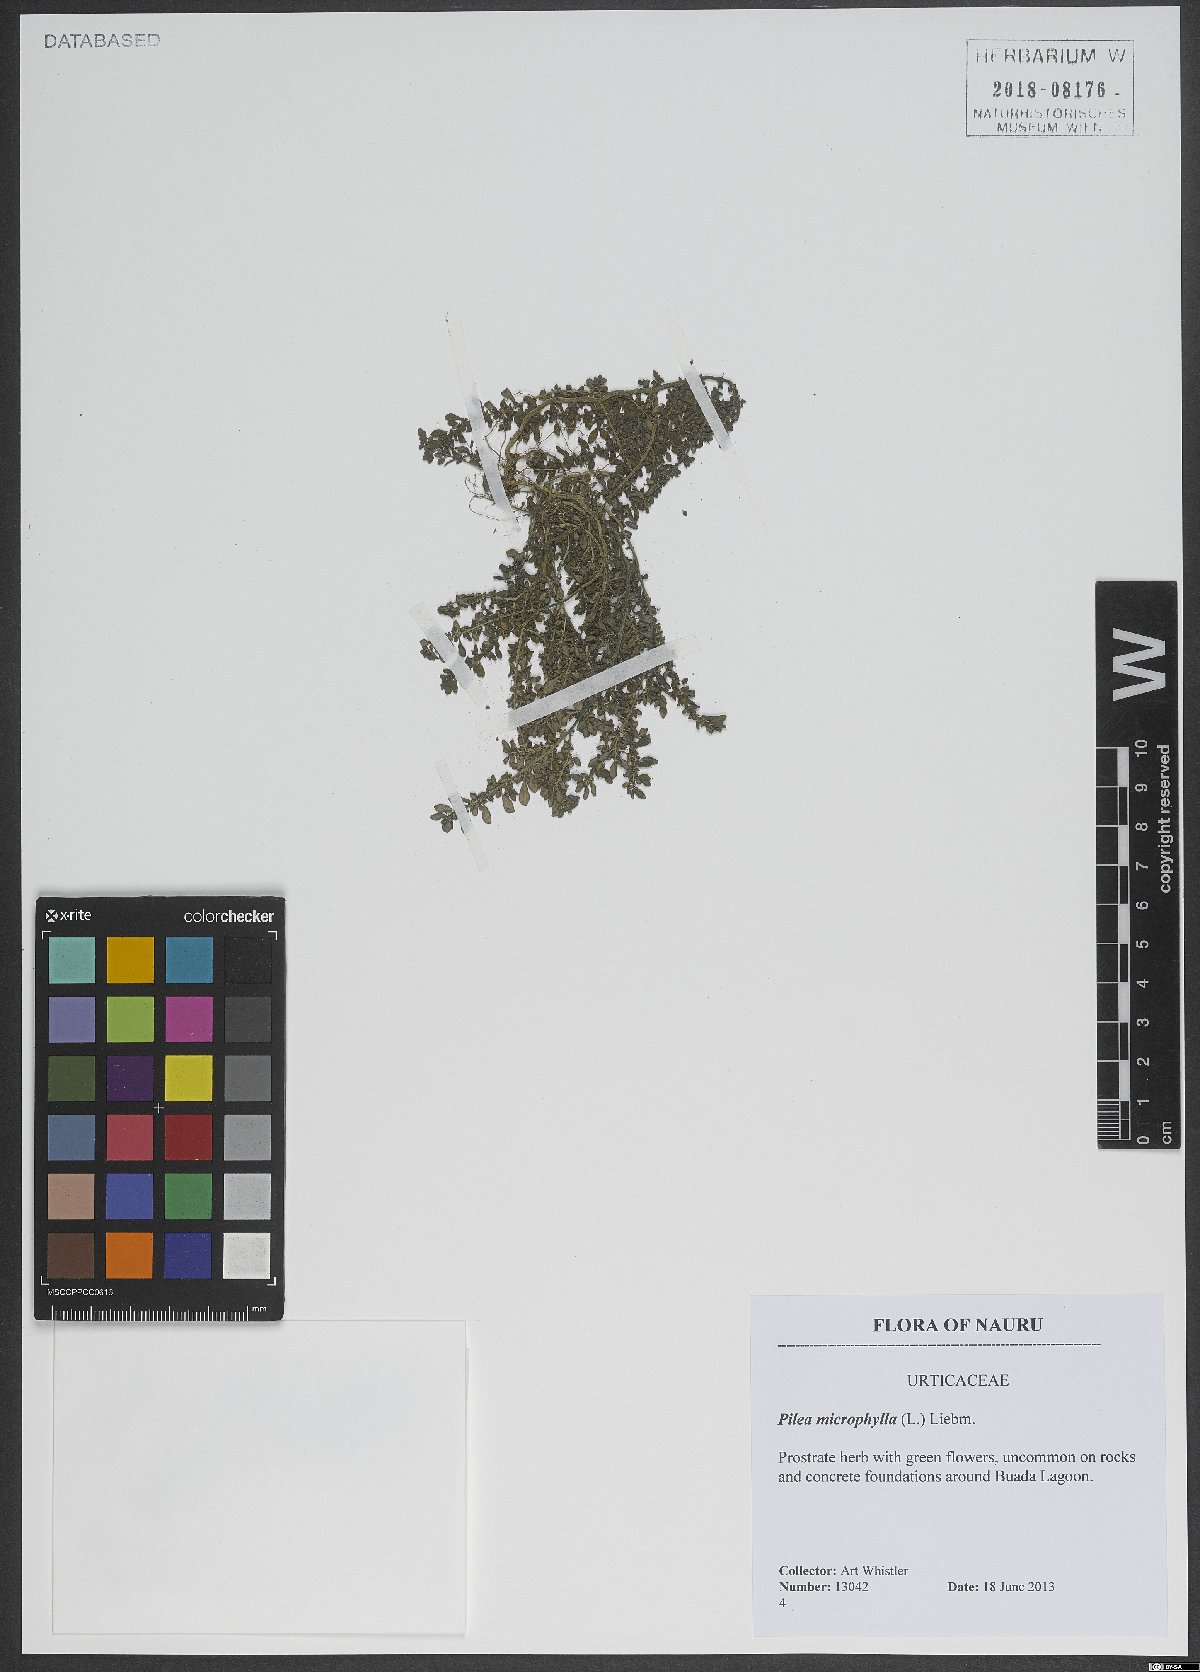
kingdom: Plantae
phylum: Tracheophyta
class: Magnoliopsida
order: Rosales
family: Urticaceae
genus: Pilea
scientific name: Pilea microphylla
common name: Artillery-plant
